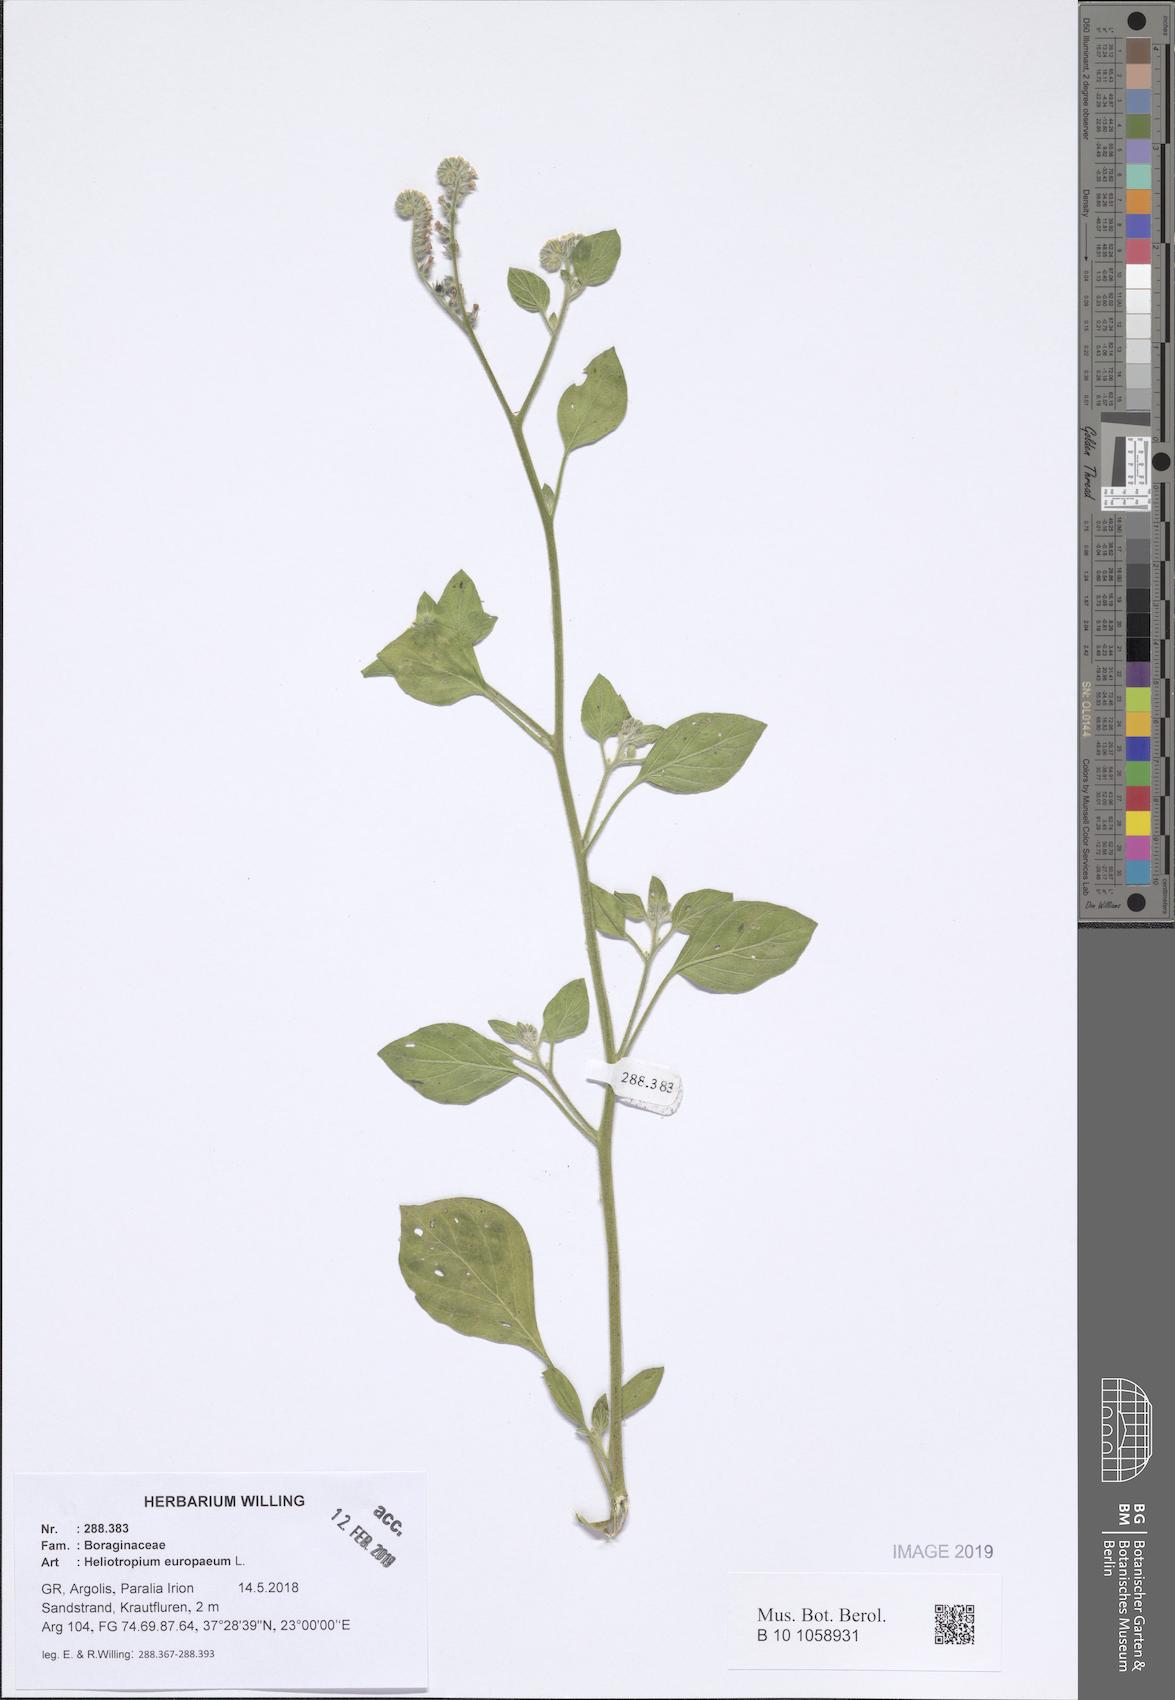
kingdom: Plantae
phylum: Tracheophyta
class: Magnoliopsida
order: Boraginales
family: Heliotropiaceae
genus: Heliotropium
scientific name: Heliotropium europaeum
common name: European heliotrope
